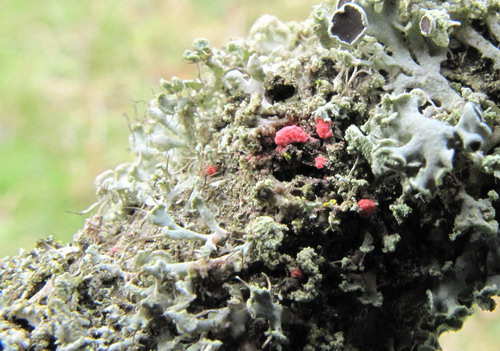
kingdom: Fungi
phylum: Ascomycota
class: Sordariomycetes
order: Hypocreales
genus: Illosporiopsis
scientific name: Illosporiopsis christiansenii
